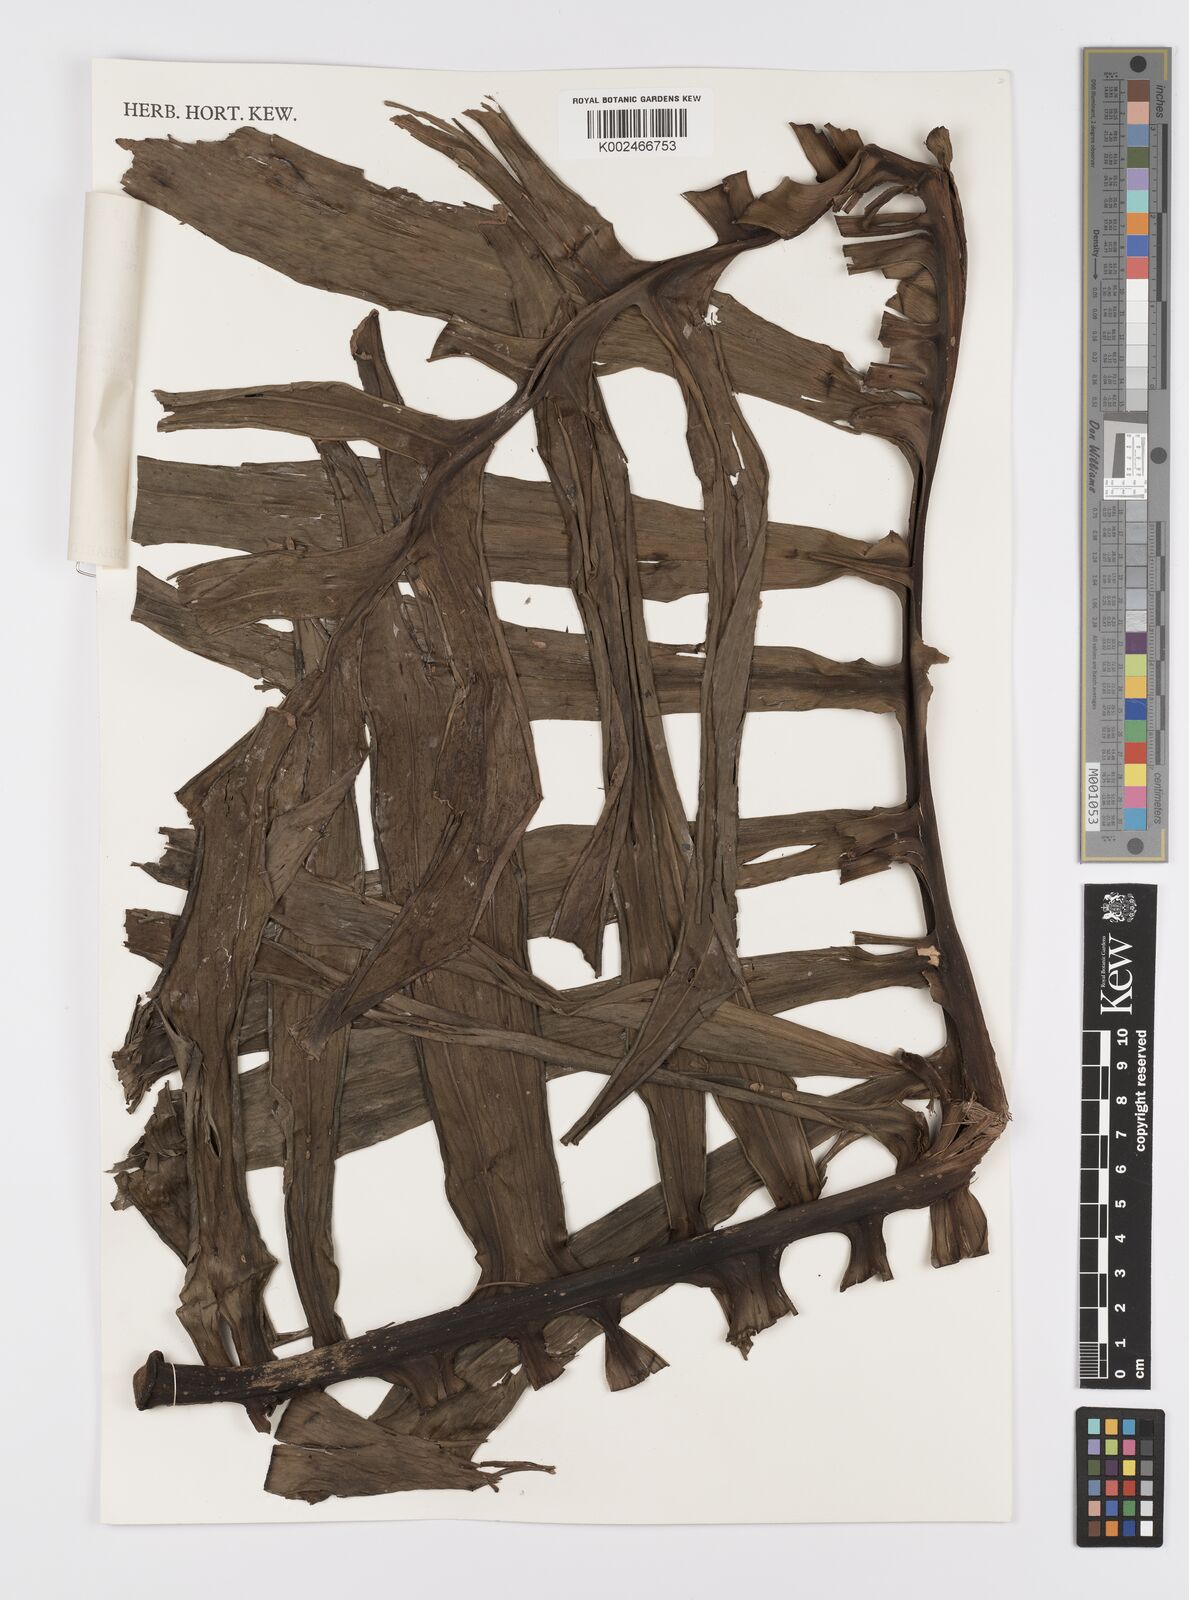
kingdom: Plantae
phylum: Tracheophyta
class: Liliopsida
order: Alismatales
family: Araceae
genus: Monstera
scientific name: Monstera tenuis
